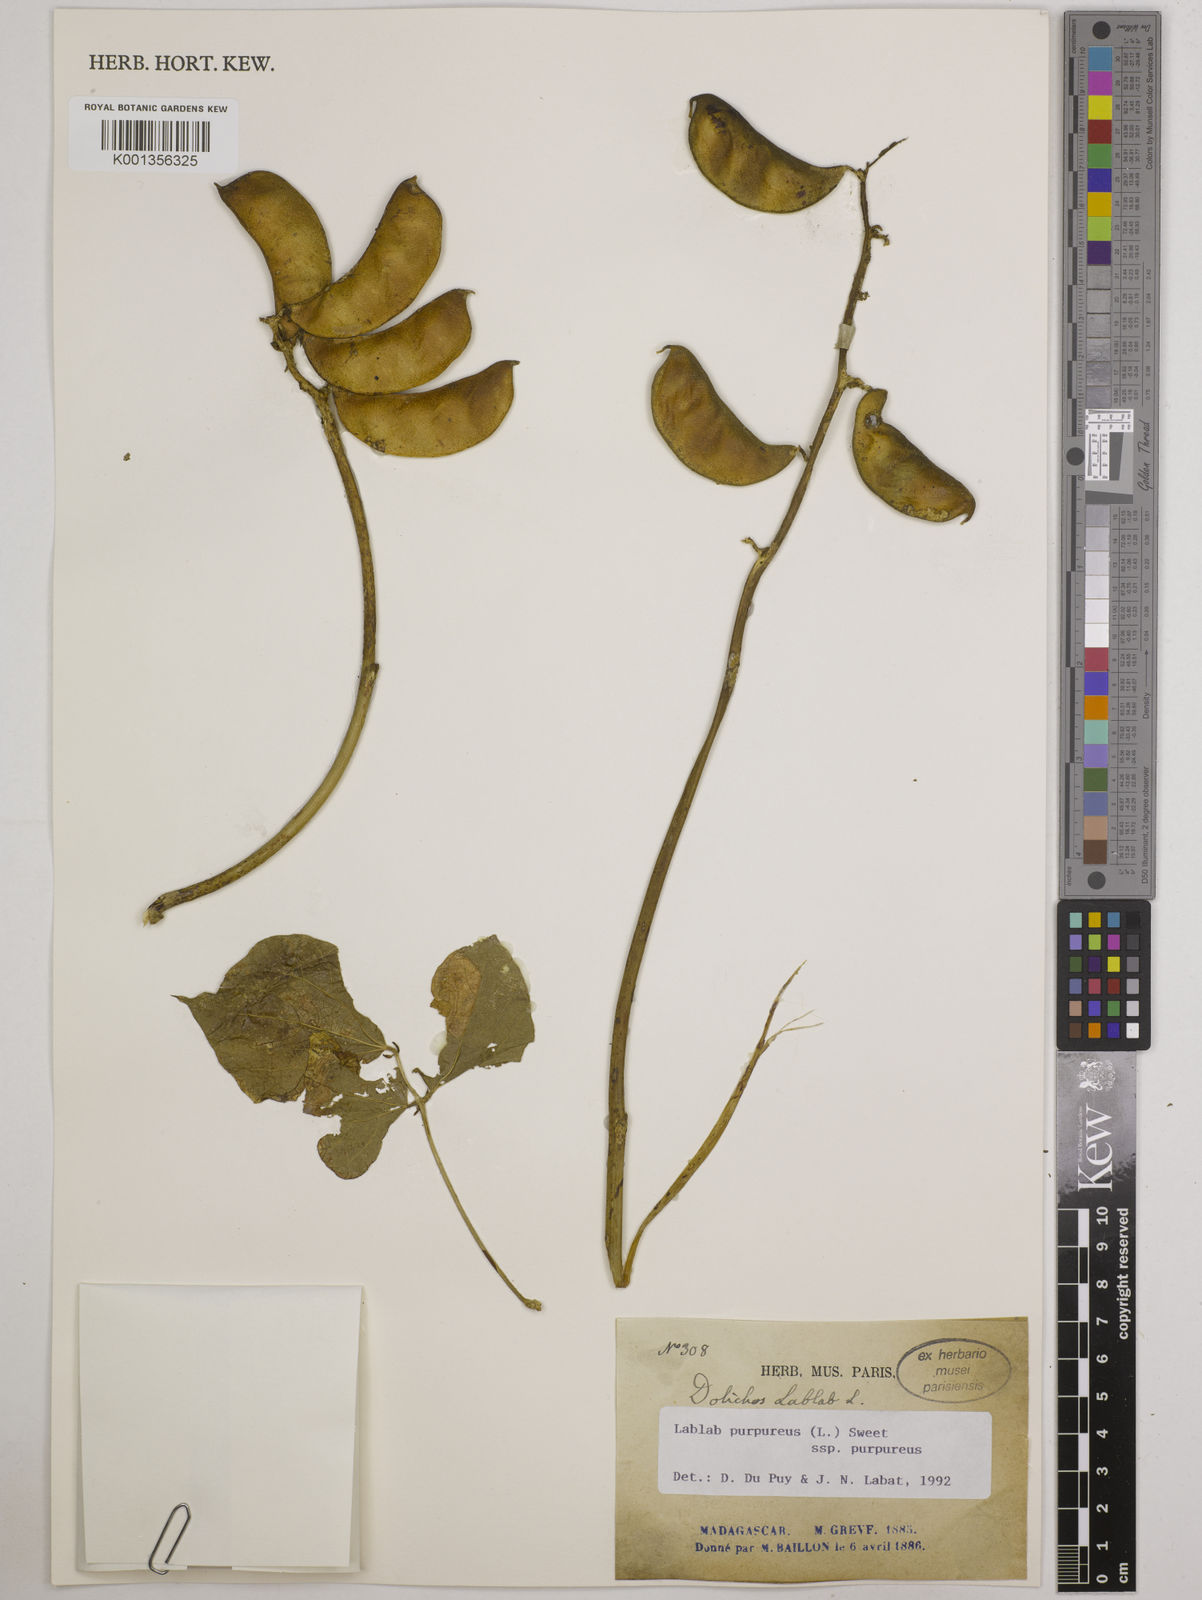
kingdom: Plantae
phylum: Tracheophyta
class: Magnoliopsida
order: Fabales
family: Fabaceae
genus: Lablab
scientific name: Lablab purpureus
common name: Lablab-bean
